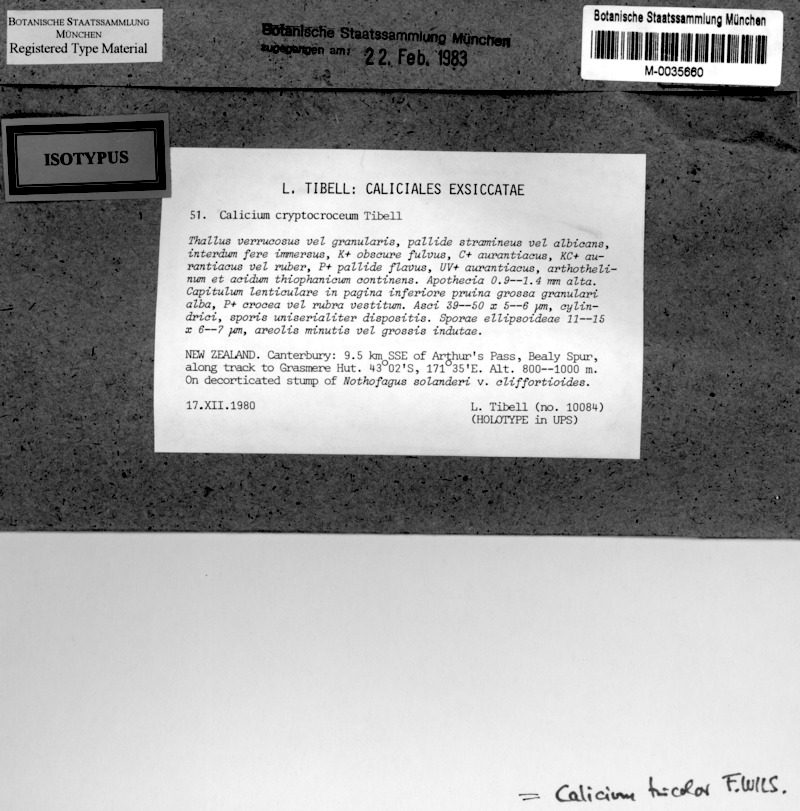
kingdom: Fungi
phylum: Ascomycota
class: Lecanoromycetes
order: Caliciales
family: Caliciaceae
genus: Calicium
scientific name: Calicium tricolor
